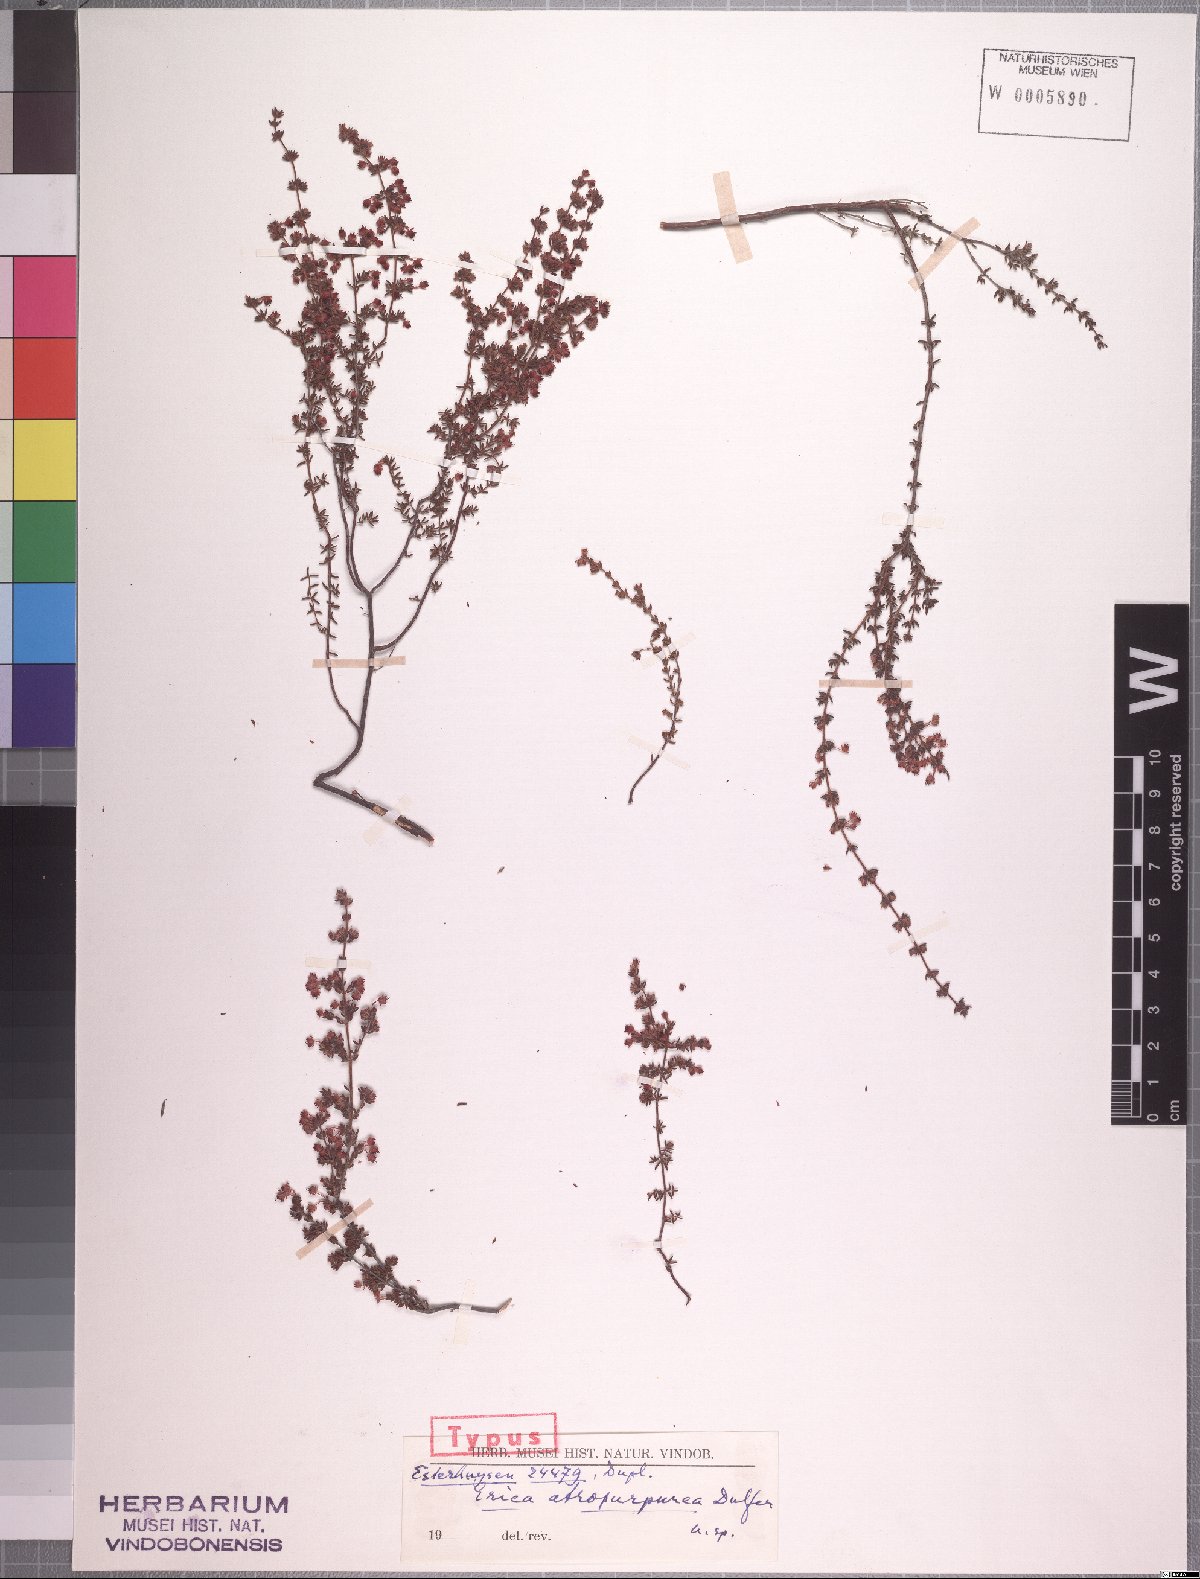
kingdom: Plantae
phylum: Tracheophyta
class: Magnoliopsida
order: Ericales
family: Ericaceae
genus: Erica
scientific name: Erica atropurpurea
